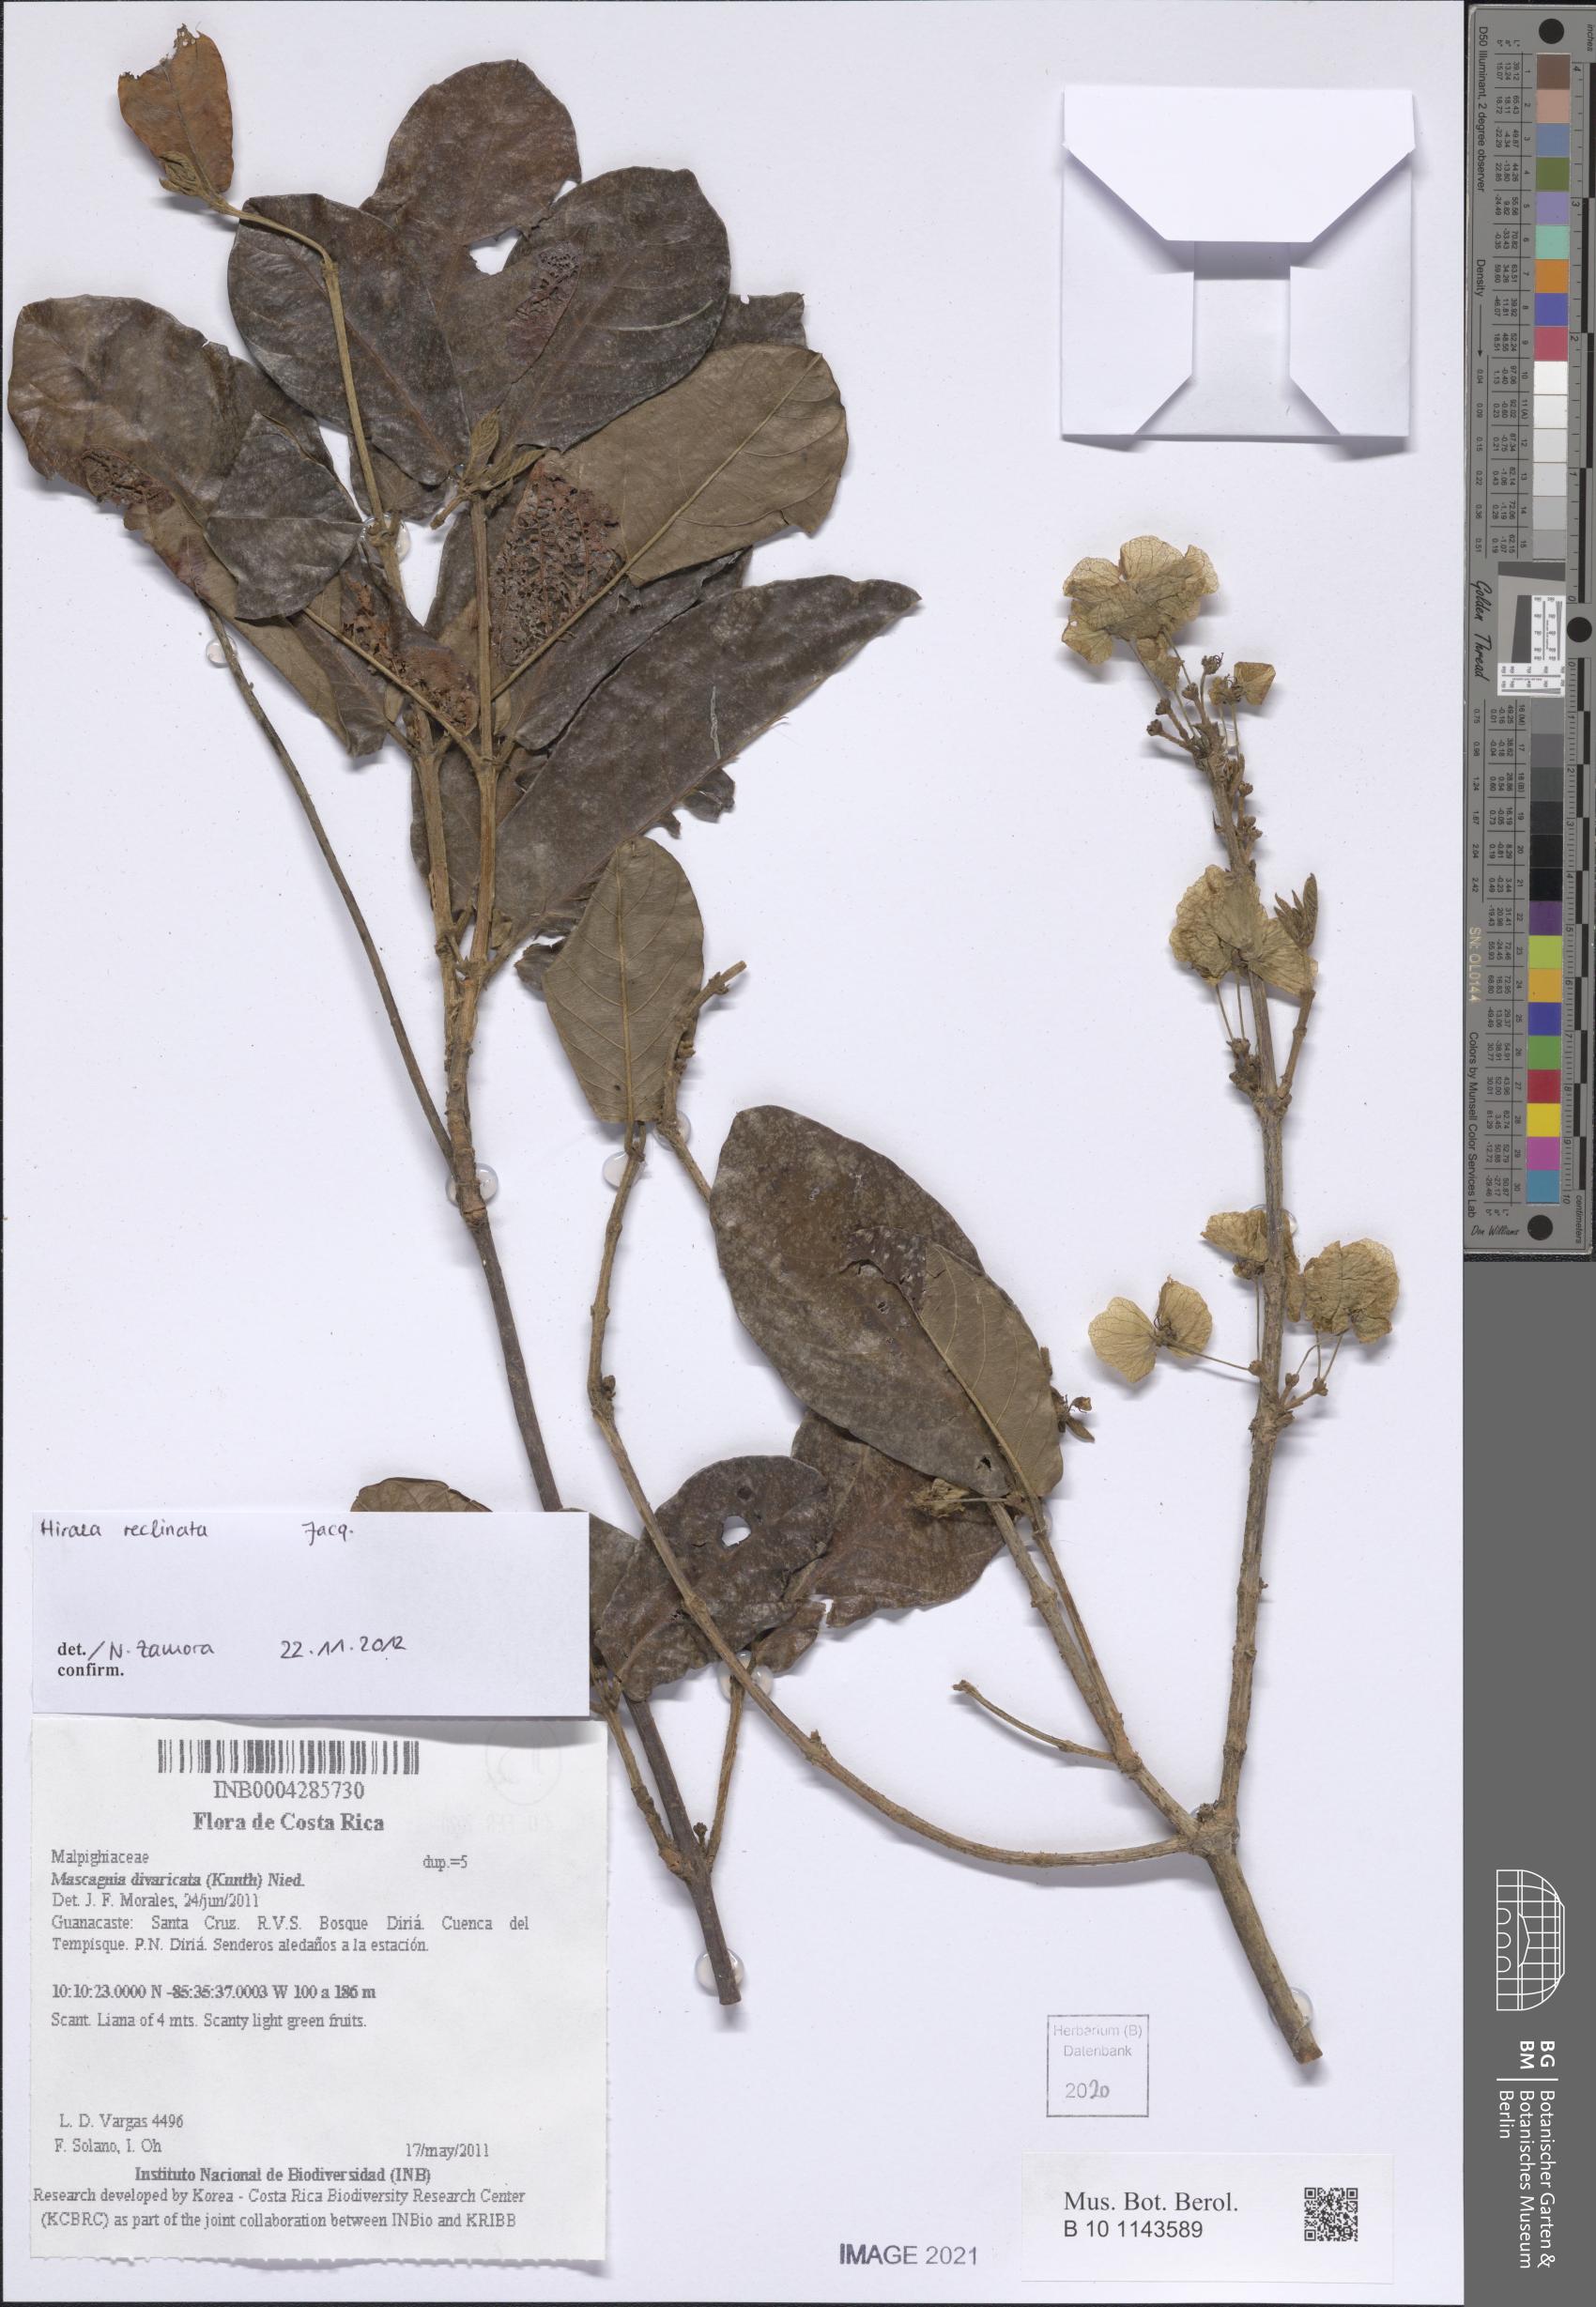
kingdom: Plantae
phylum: Tracheophyta
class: Magnoliopsida
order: Malpighiales
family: Malpighiaceae
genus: Hiraea
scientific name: Hiraea reclinata
